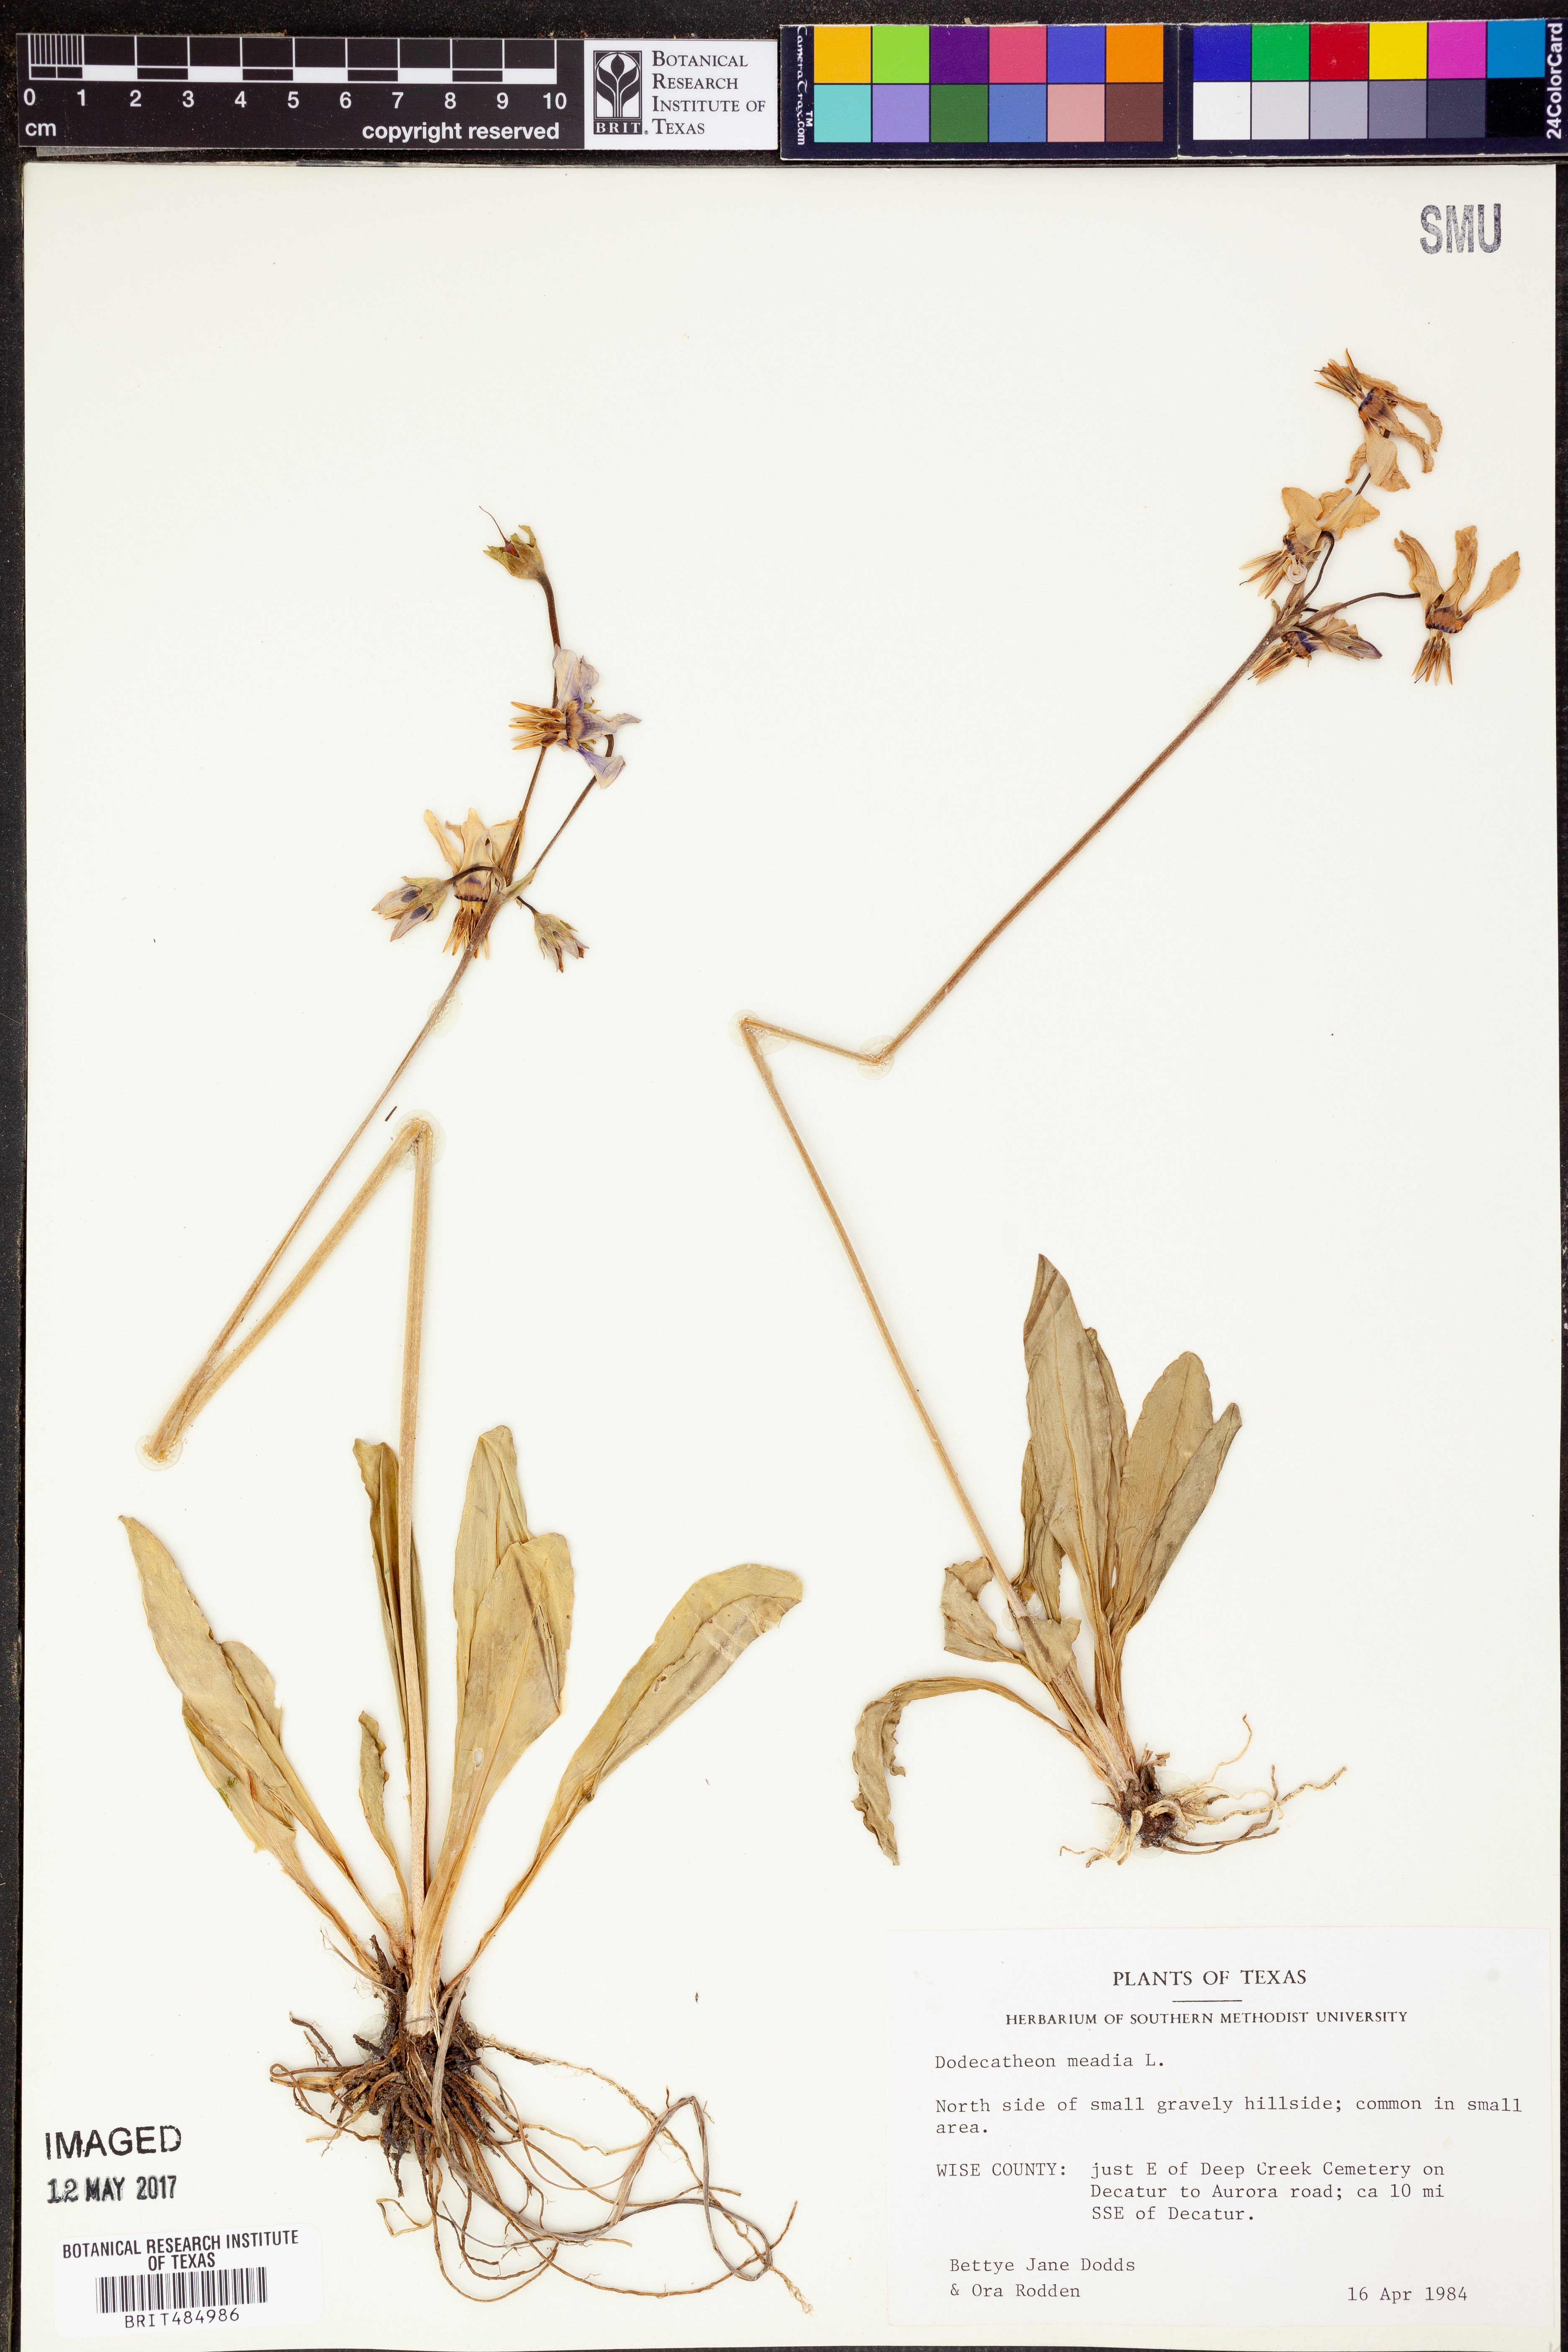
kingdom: Plantae
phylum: Tracheophyta
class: Magnoliopsida
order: Ericales
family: Primulaceae
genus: Dodecatheon
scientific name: Dodecatheon meadia
